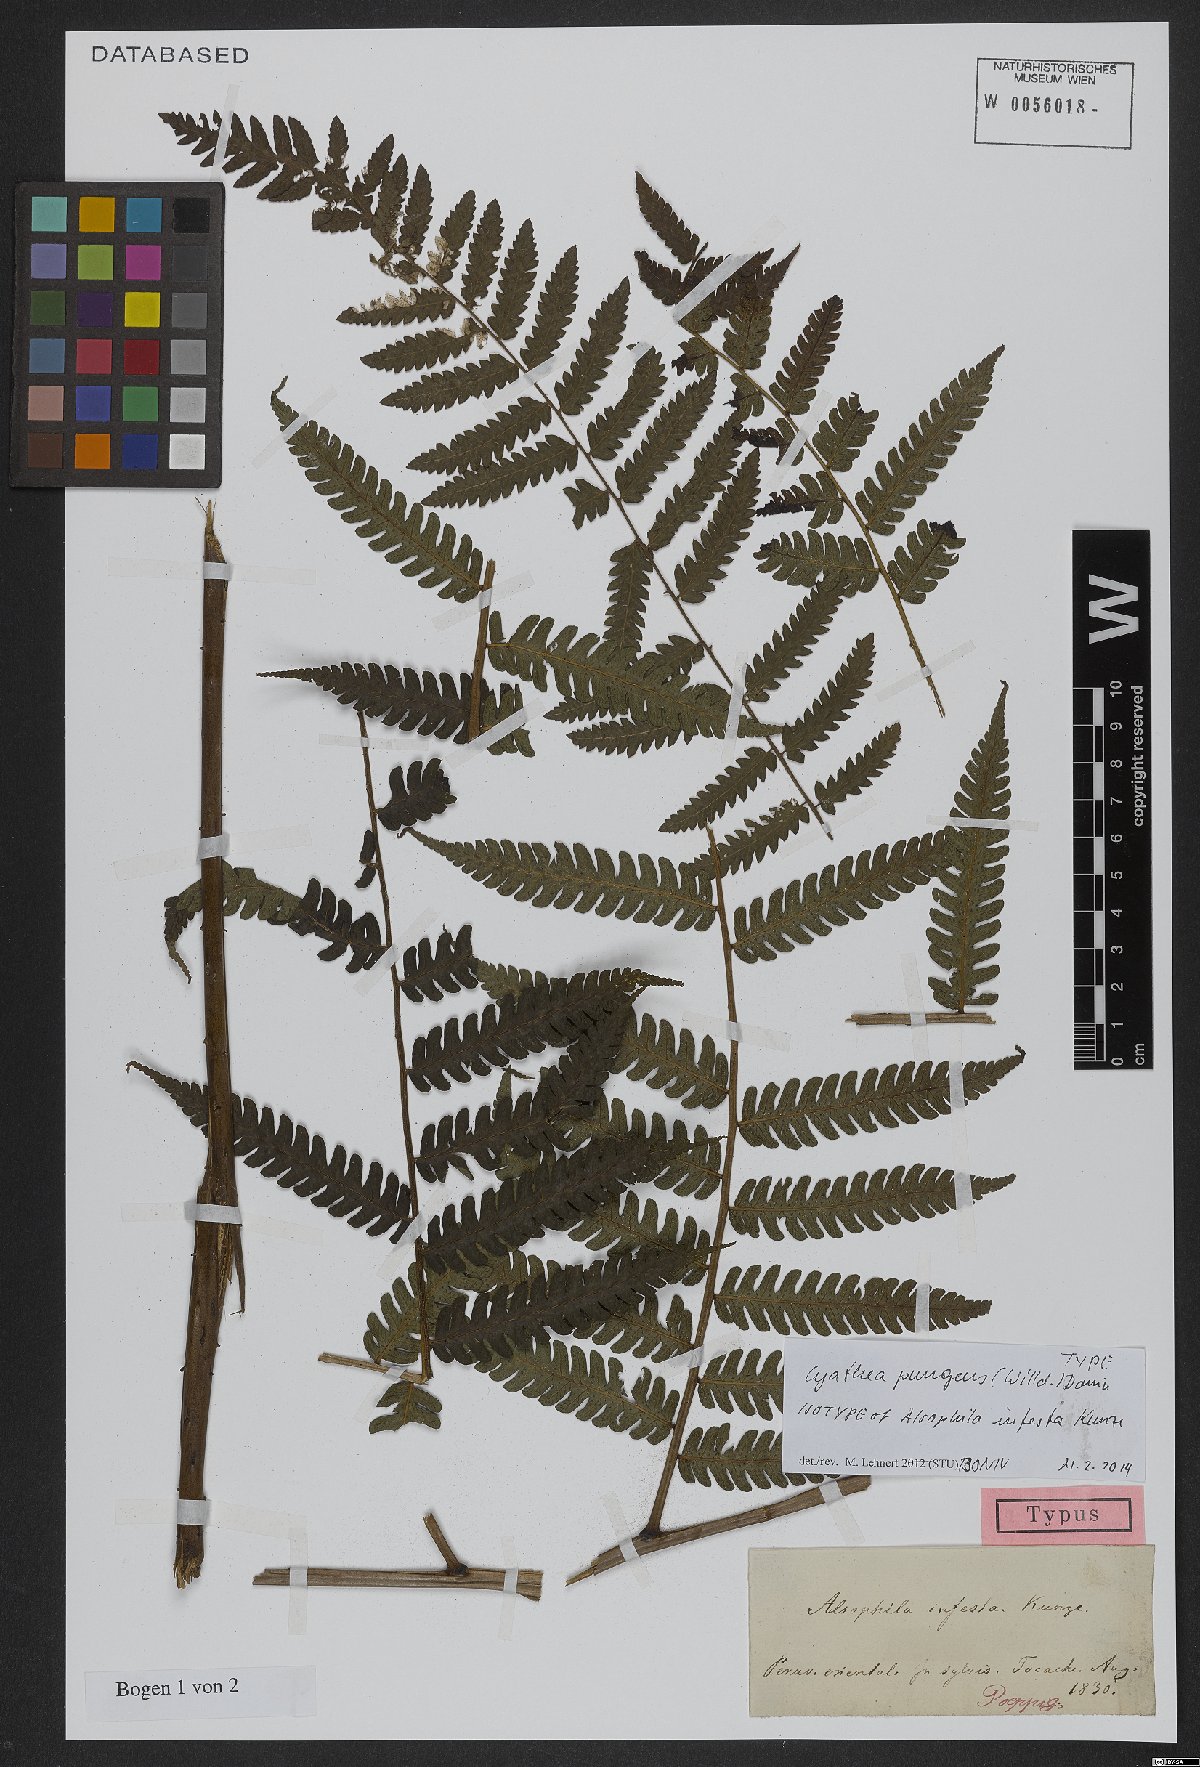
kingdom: Plantae
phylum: Tracheophyta
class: Polypodiopsida
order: Cyatheales
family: Cyatheaceae
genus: Cyathea
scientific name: Cyathea pungens
